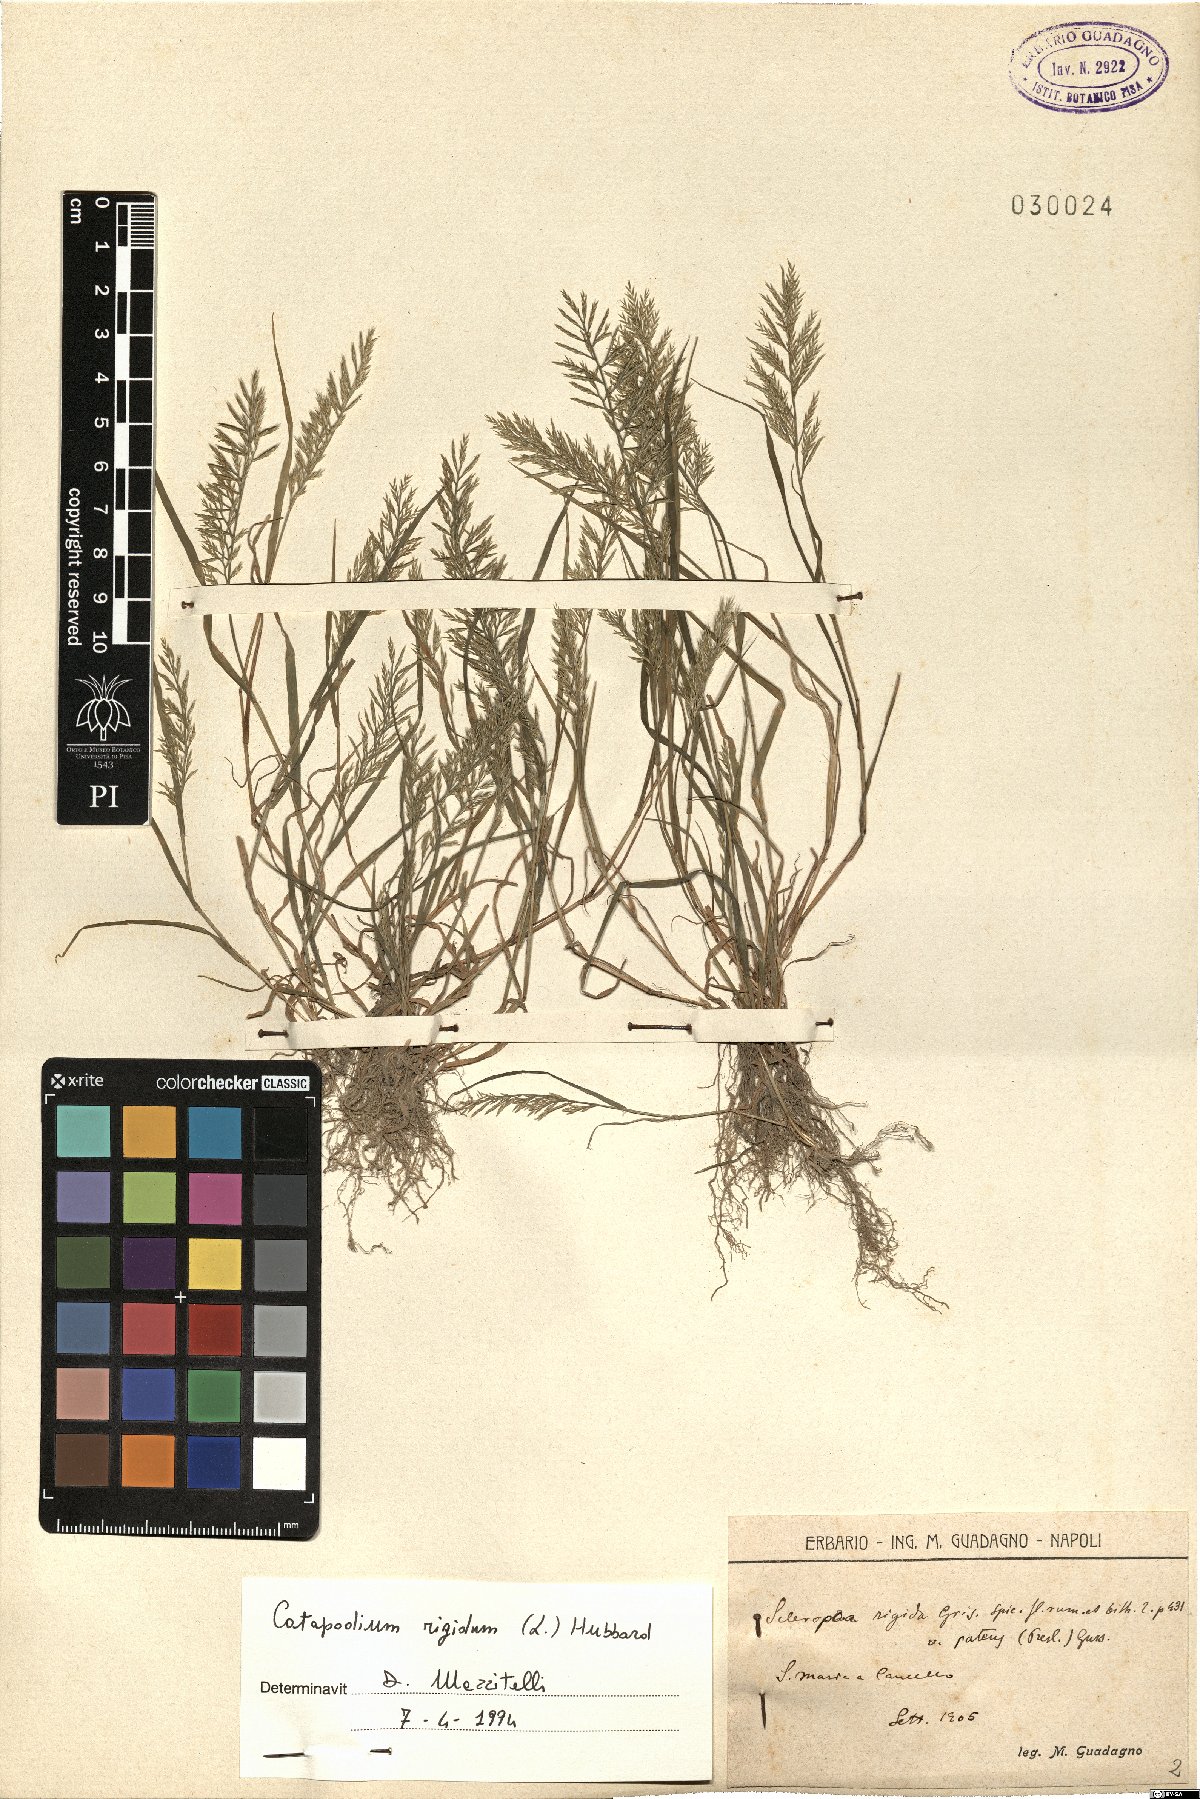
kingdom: Plantae
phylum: Tracheophyta
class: Liliopsida
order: Poales
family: Poaceae
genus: Catapodium
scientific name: Catapodium rigidum
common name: Fern-grass
